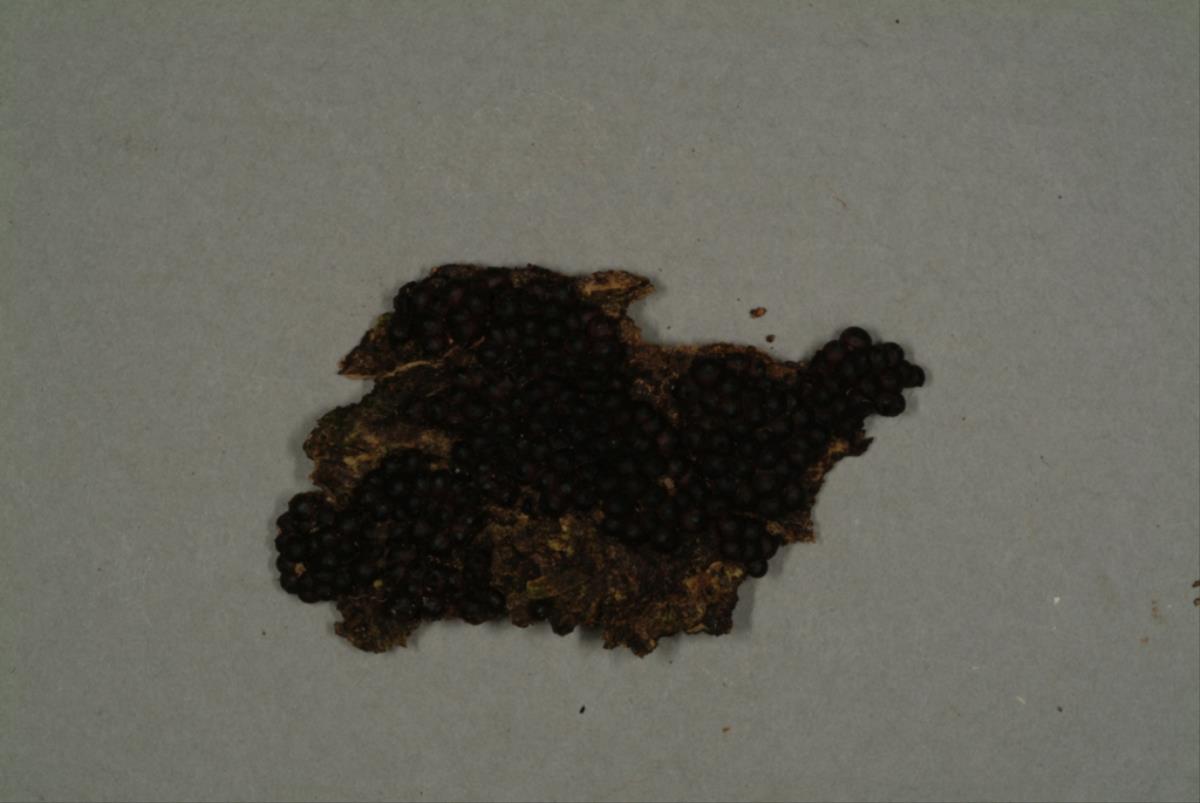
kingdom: Fungi
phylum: Ascomycota
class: Sordariomycetes
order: Xylariales
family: Xylariaceae
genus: Rosellinia
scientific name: Rosellinia
